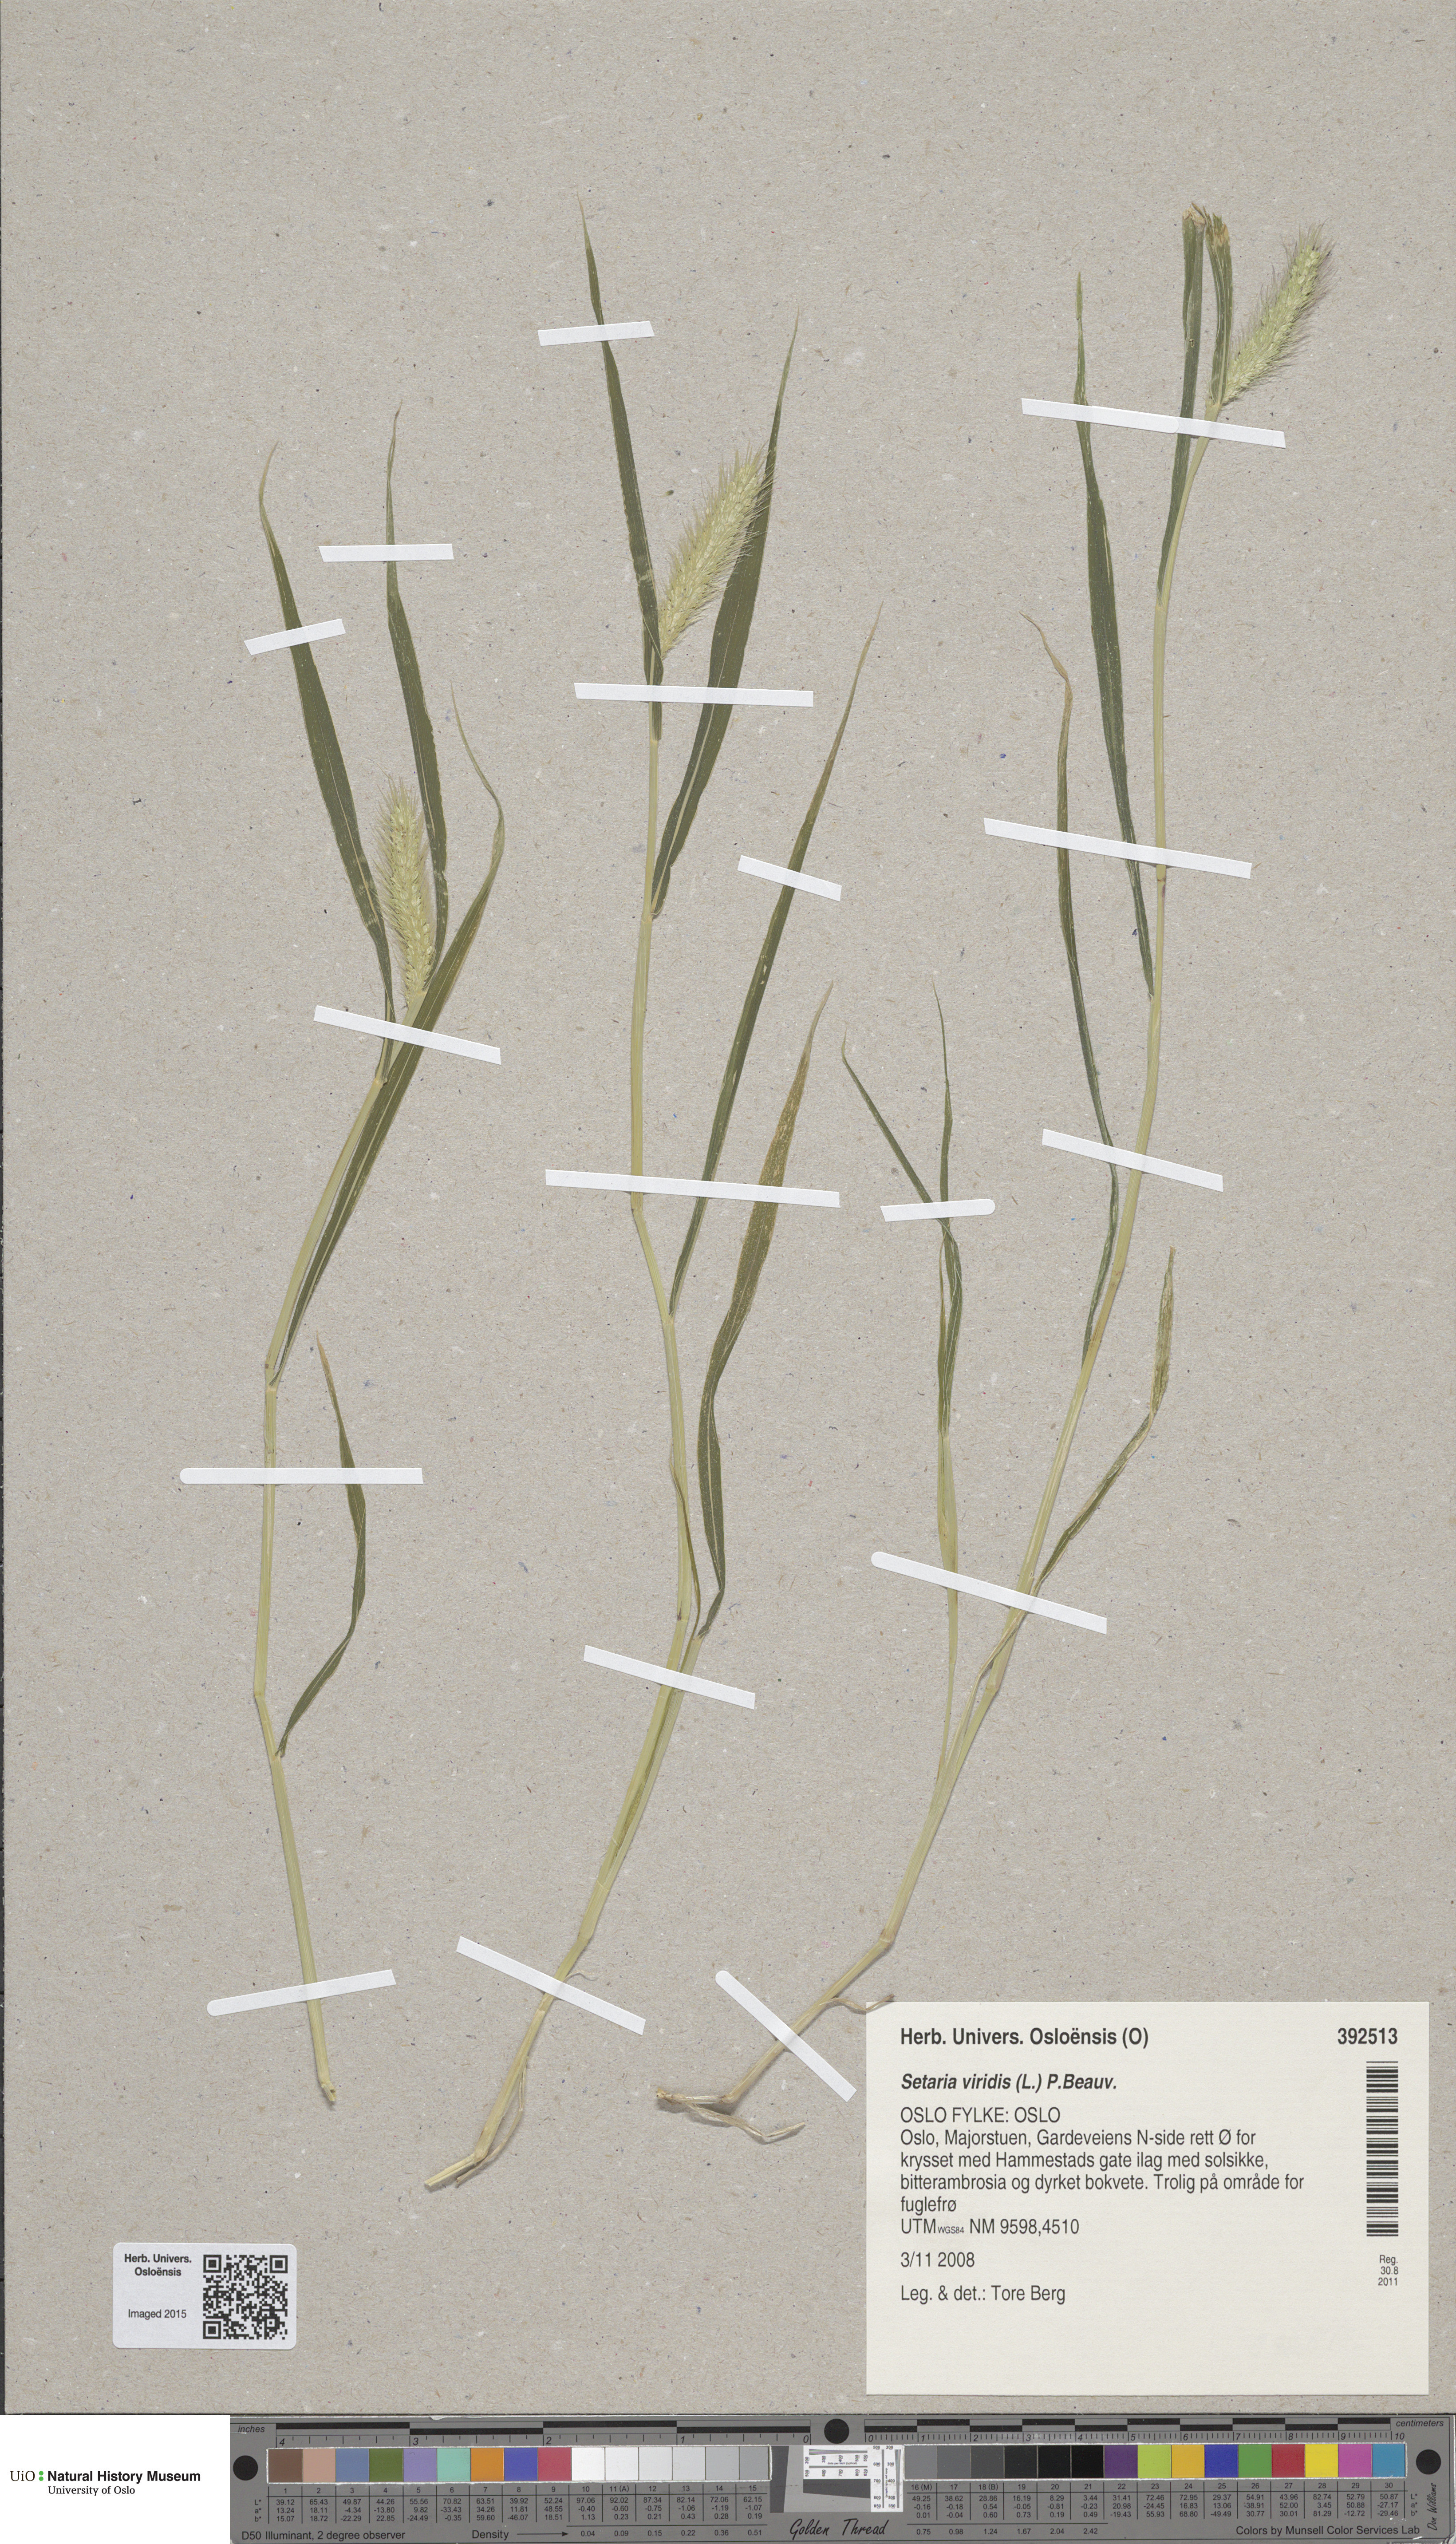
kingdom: Plantae
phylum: Tracheophyta
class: Liliopsida
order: Poales
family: Poaceae
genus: Setaria
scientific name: Setaria viridis
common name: Green bristlegrass
